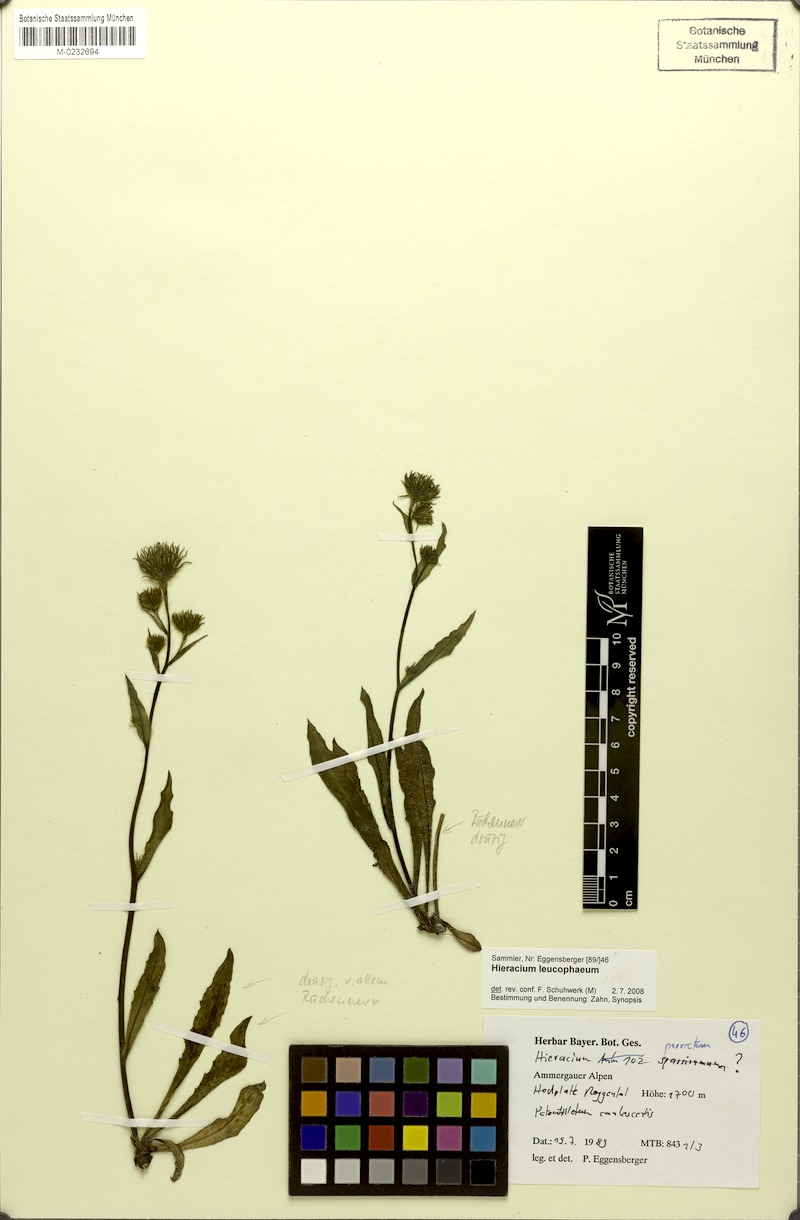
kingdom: Plantae
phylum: Tracheophyta
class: Magnoliopsida
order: Asterales
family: Asteraceae
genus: Hieracium
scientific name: Hieracium leucophaeum
